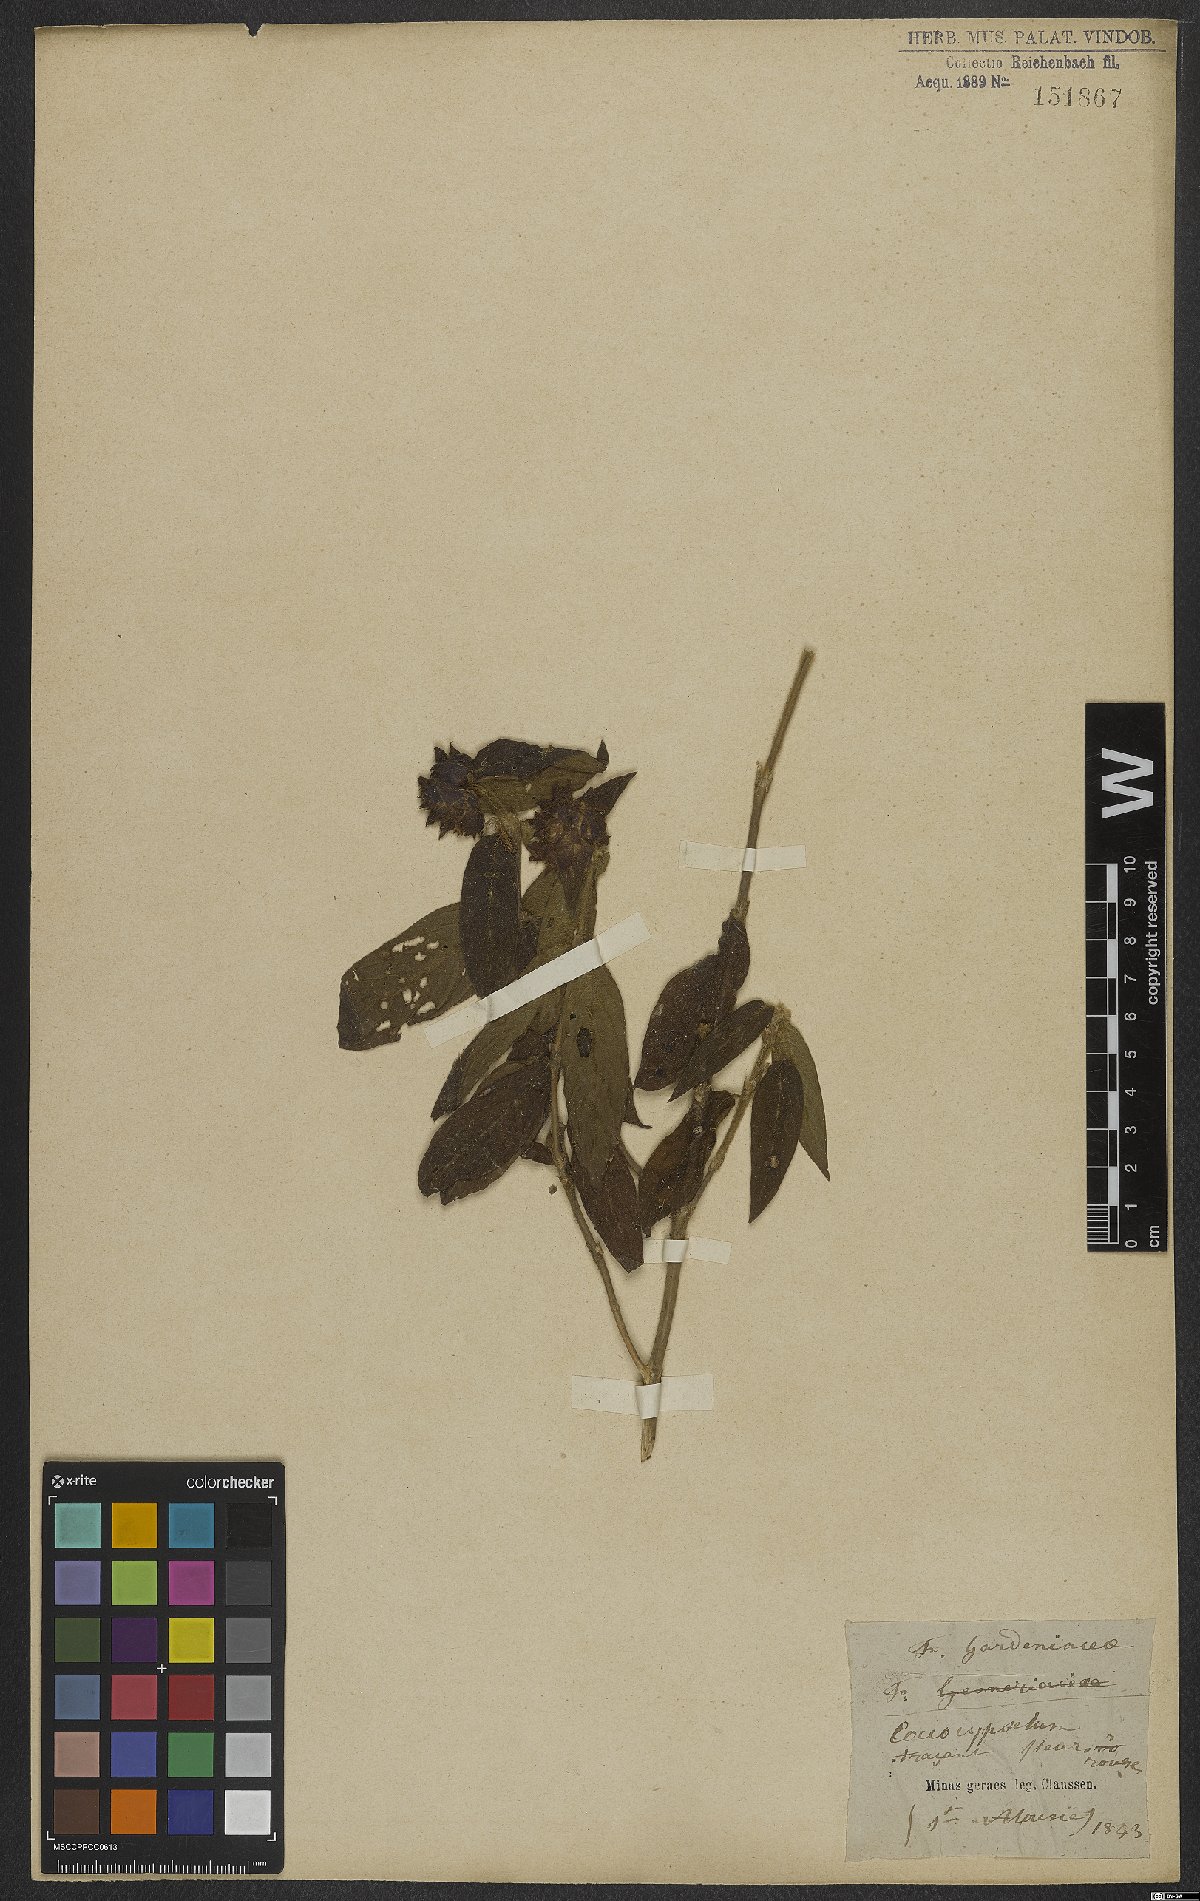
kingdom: Plantae
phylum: Tracheophyta
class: Magnoliopsida
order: Gentianales
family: Rubiaceae
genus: Coccocypselum
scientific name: Coccocypselum
